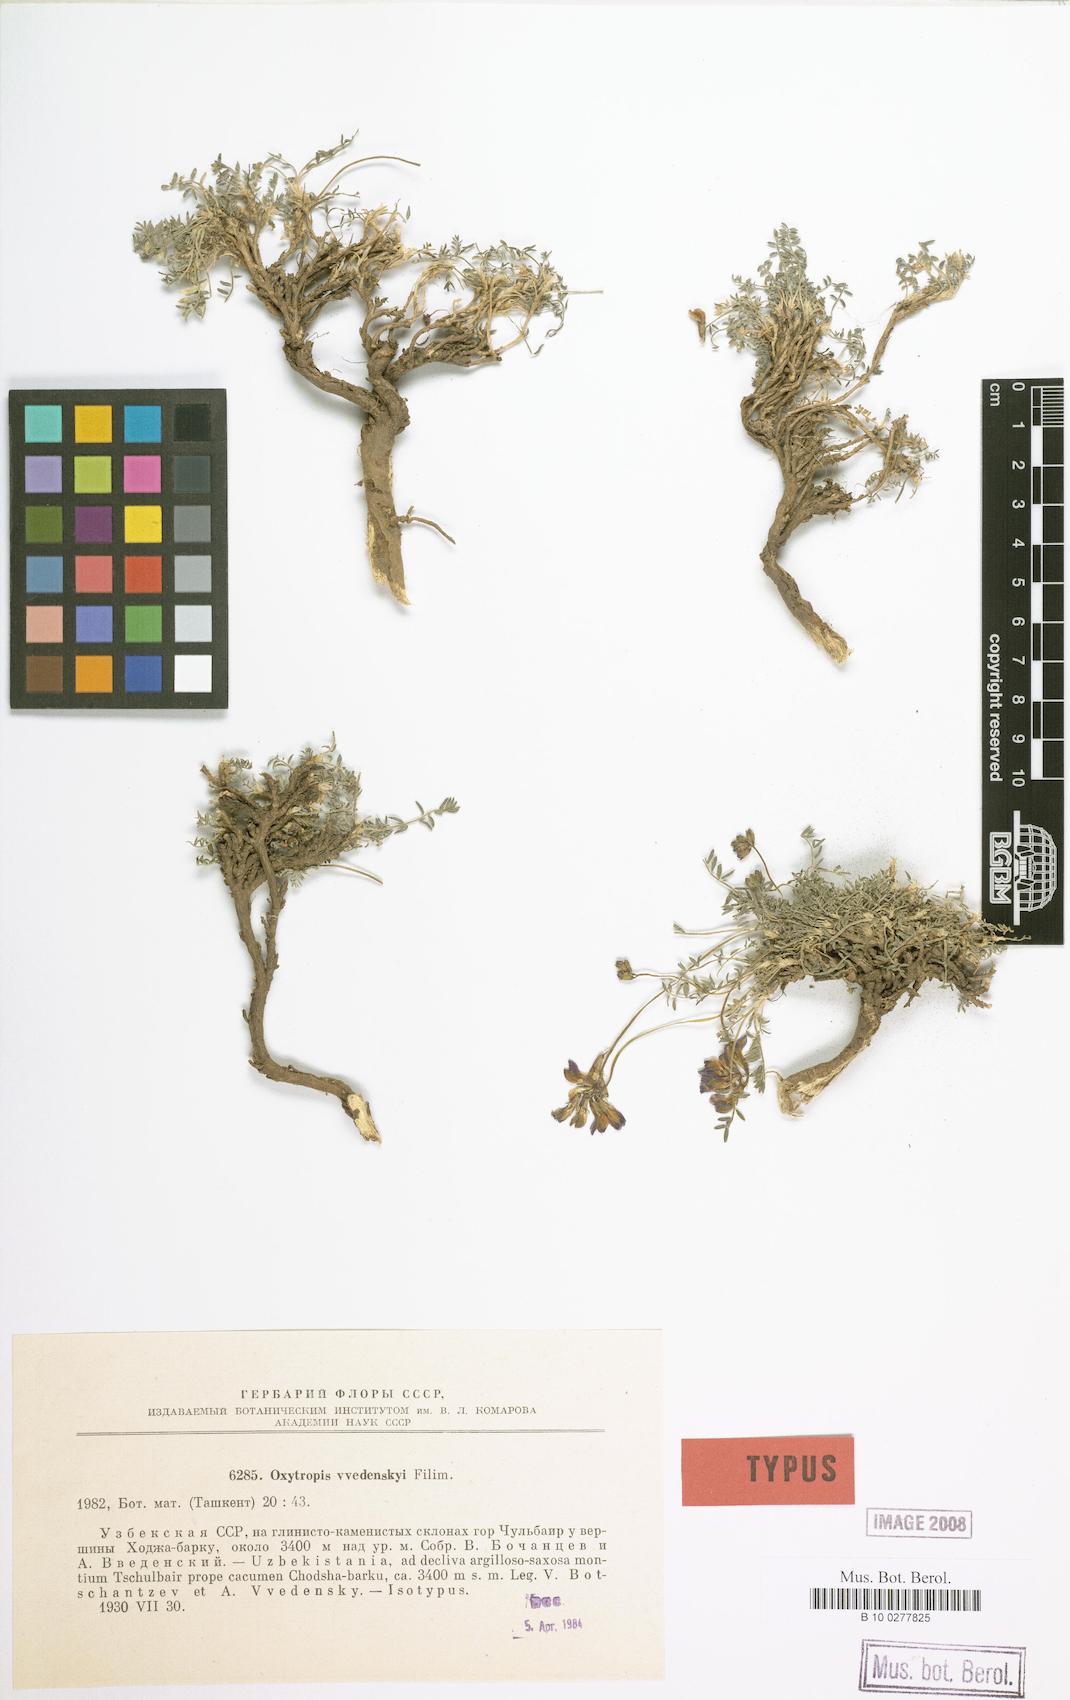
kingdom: Plantae
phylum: Tracheophyta
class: Magnoliopsida
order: Fabales
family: Fabaceae
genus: Oxytropis
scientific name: Oxytropis vvedenskyi
